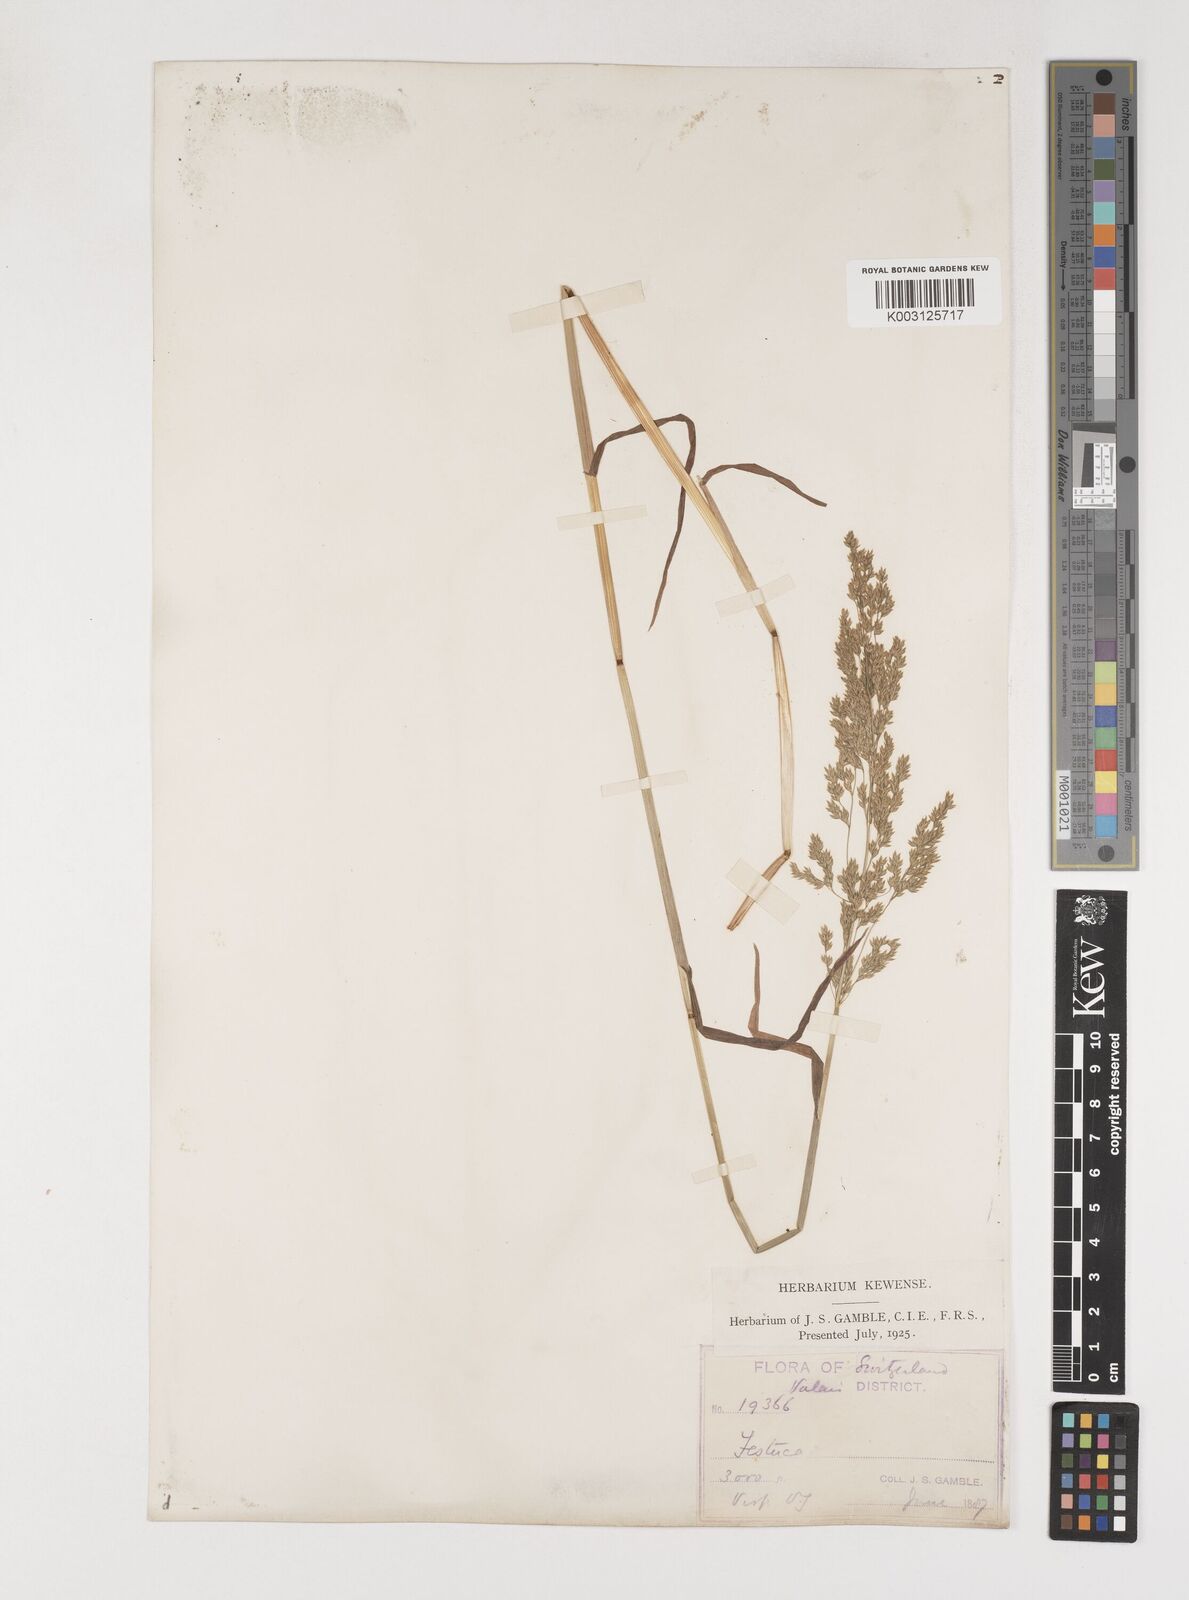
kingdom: Plantae
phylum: Tracheophyta
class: Liliopsida
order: Poales
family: Poaceae
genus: Poa
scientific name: Poa chaixii
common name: Broad-leaved meadow-grass
